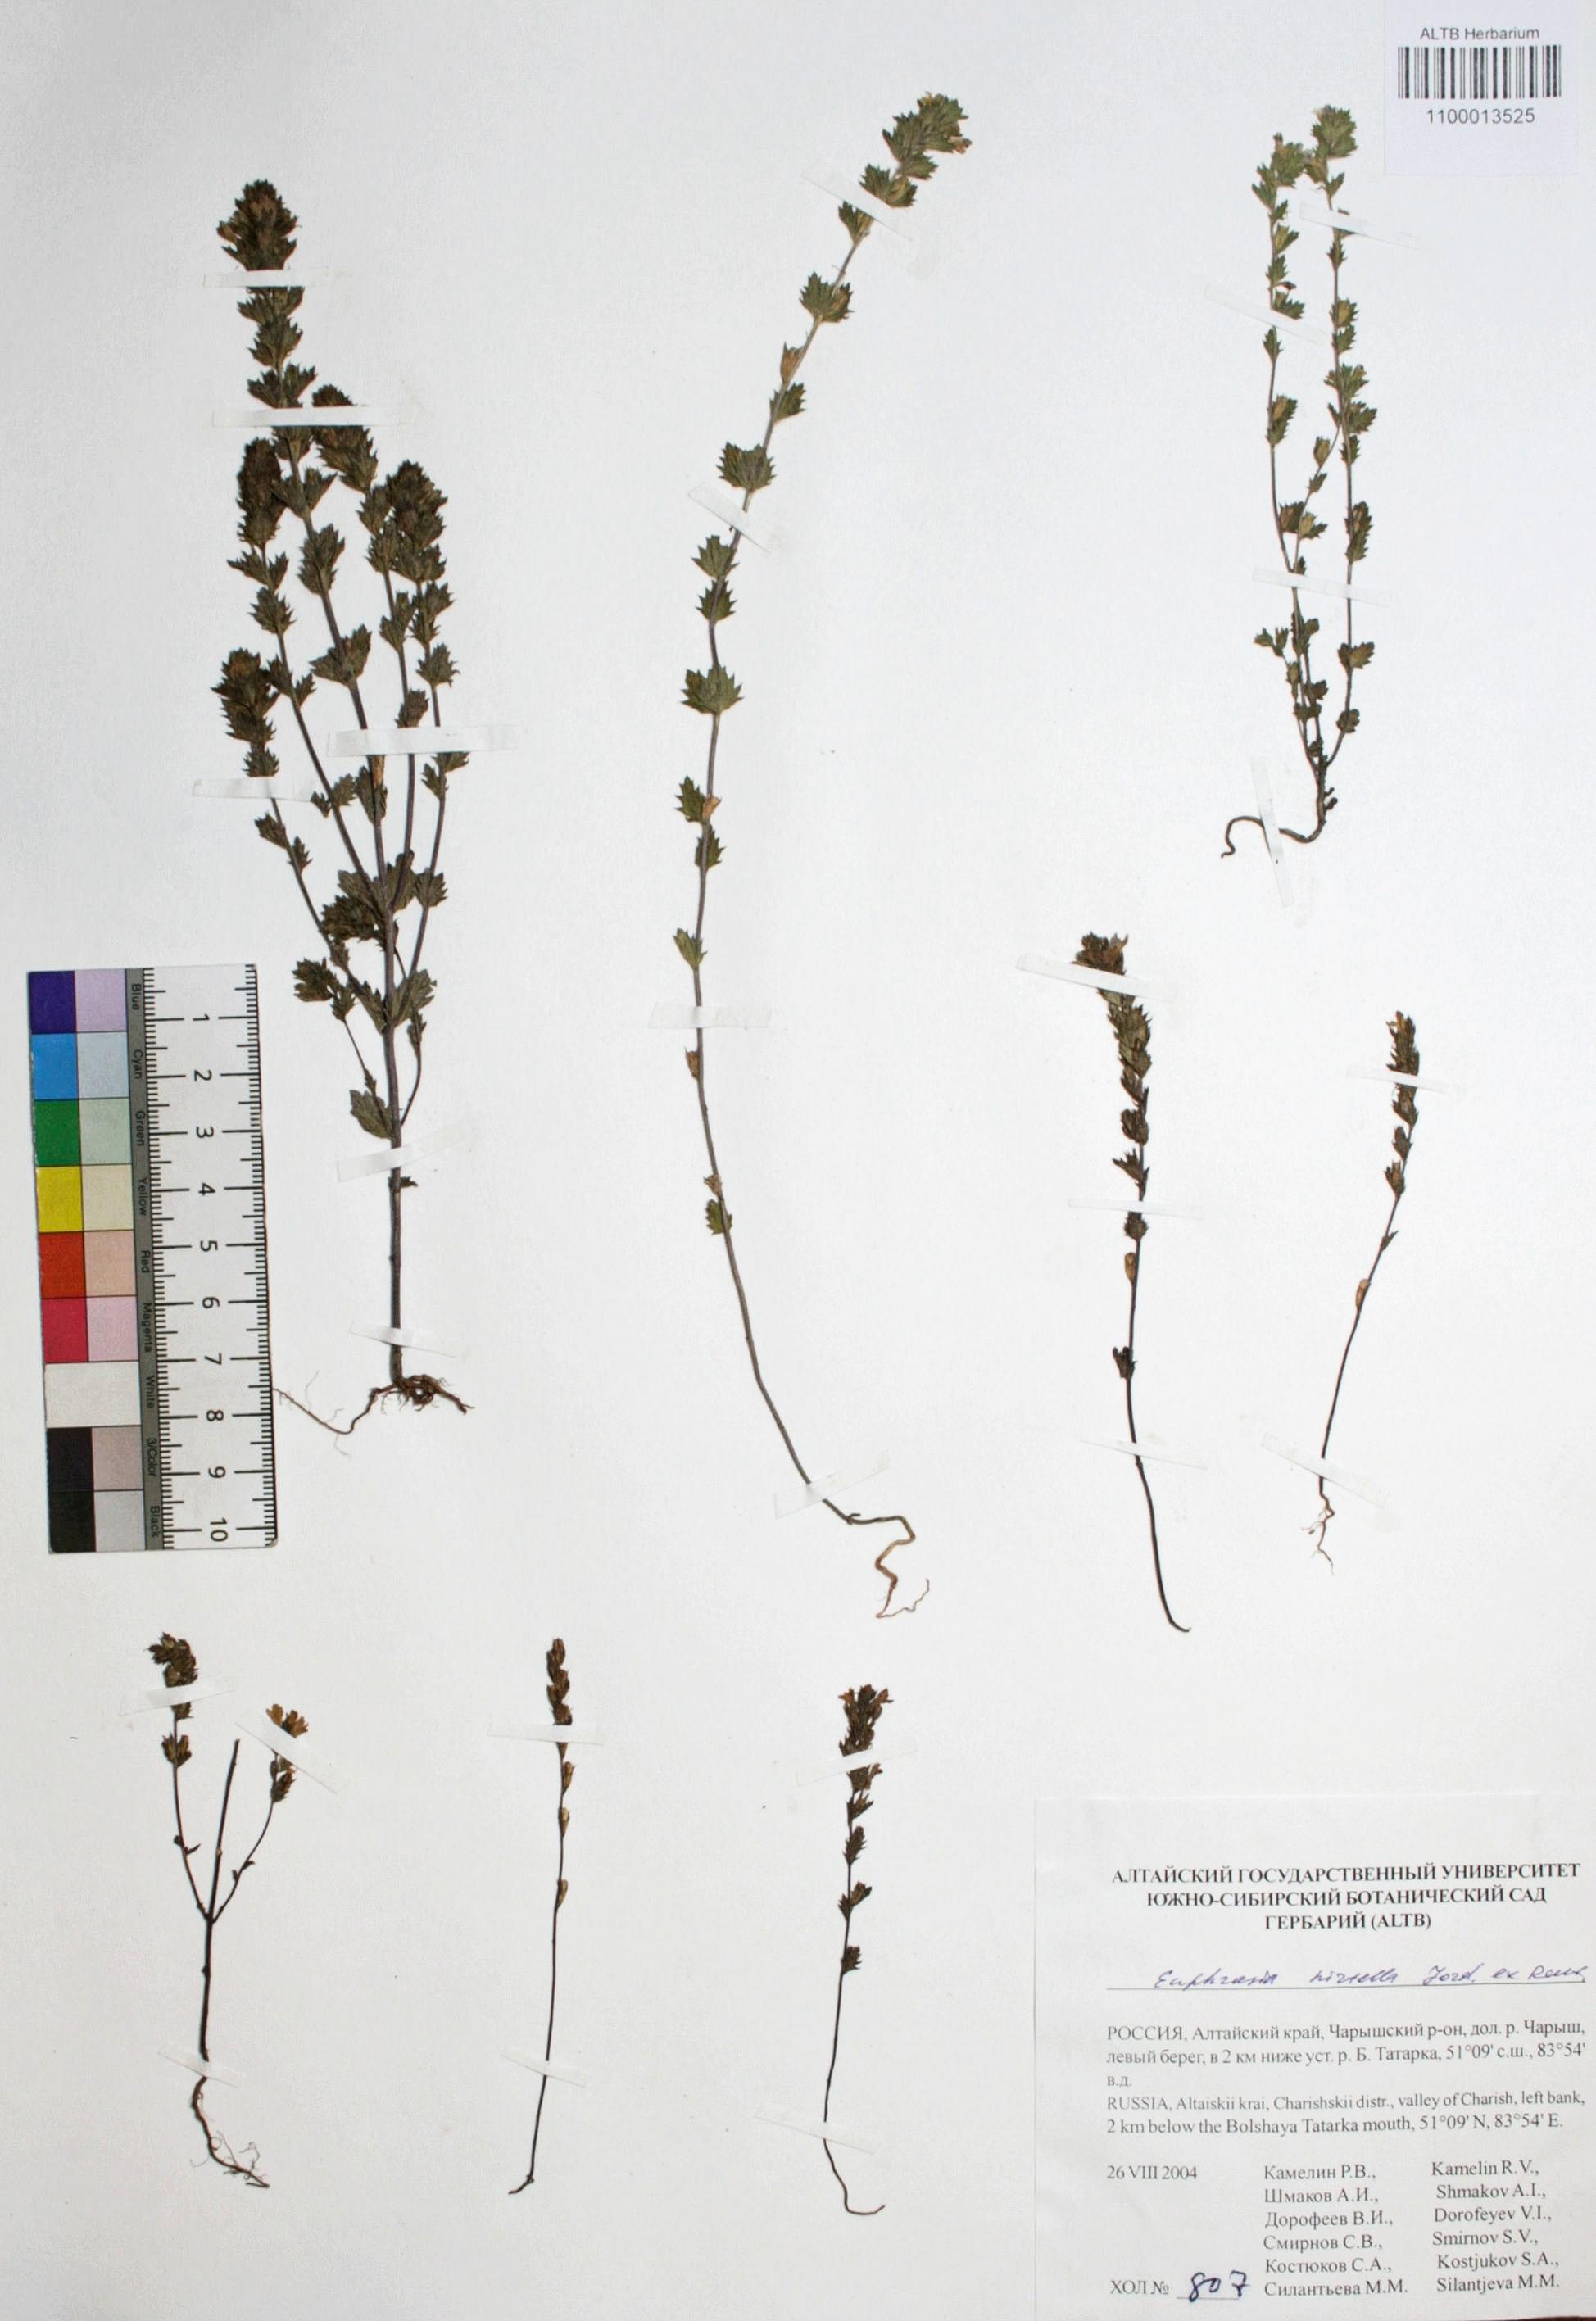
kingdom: Plantae
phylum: Tracheophyta
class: Magnoliopsida
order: Lamiales
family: Orobanchaceae
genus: Euphrasia
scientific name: Euphrasia hirtella
